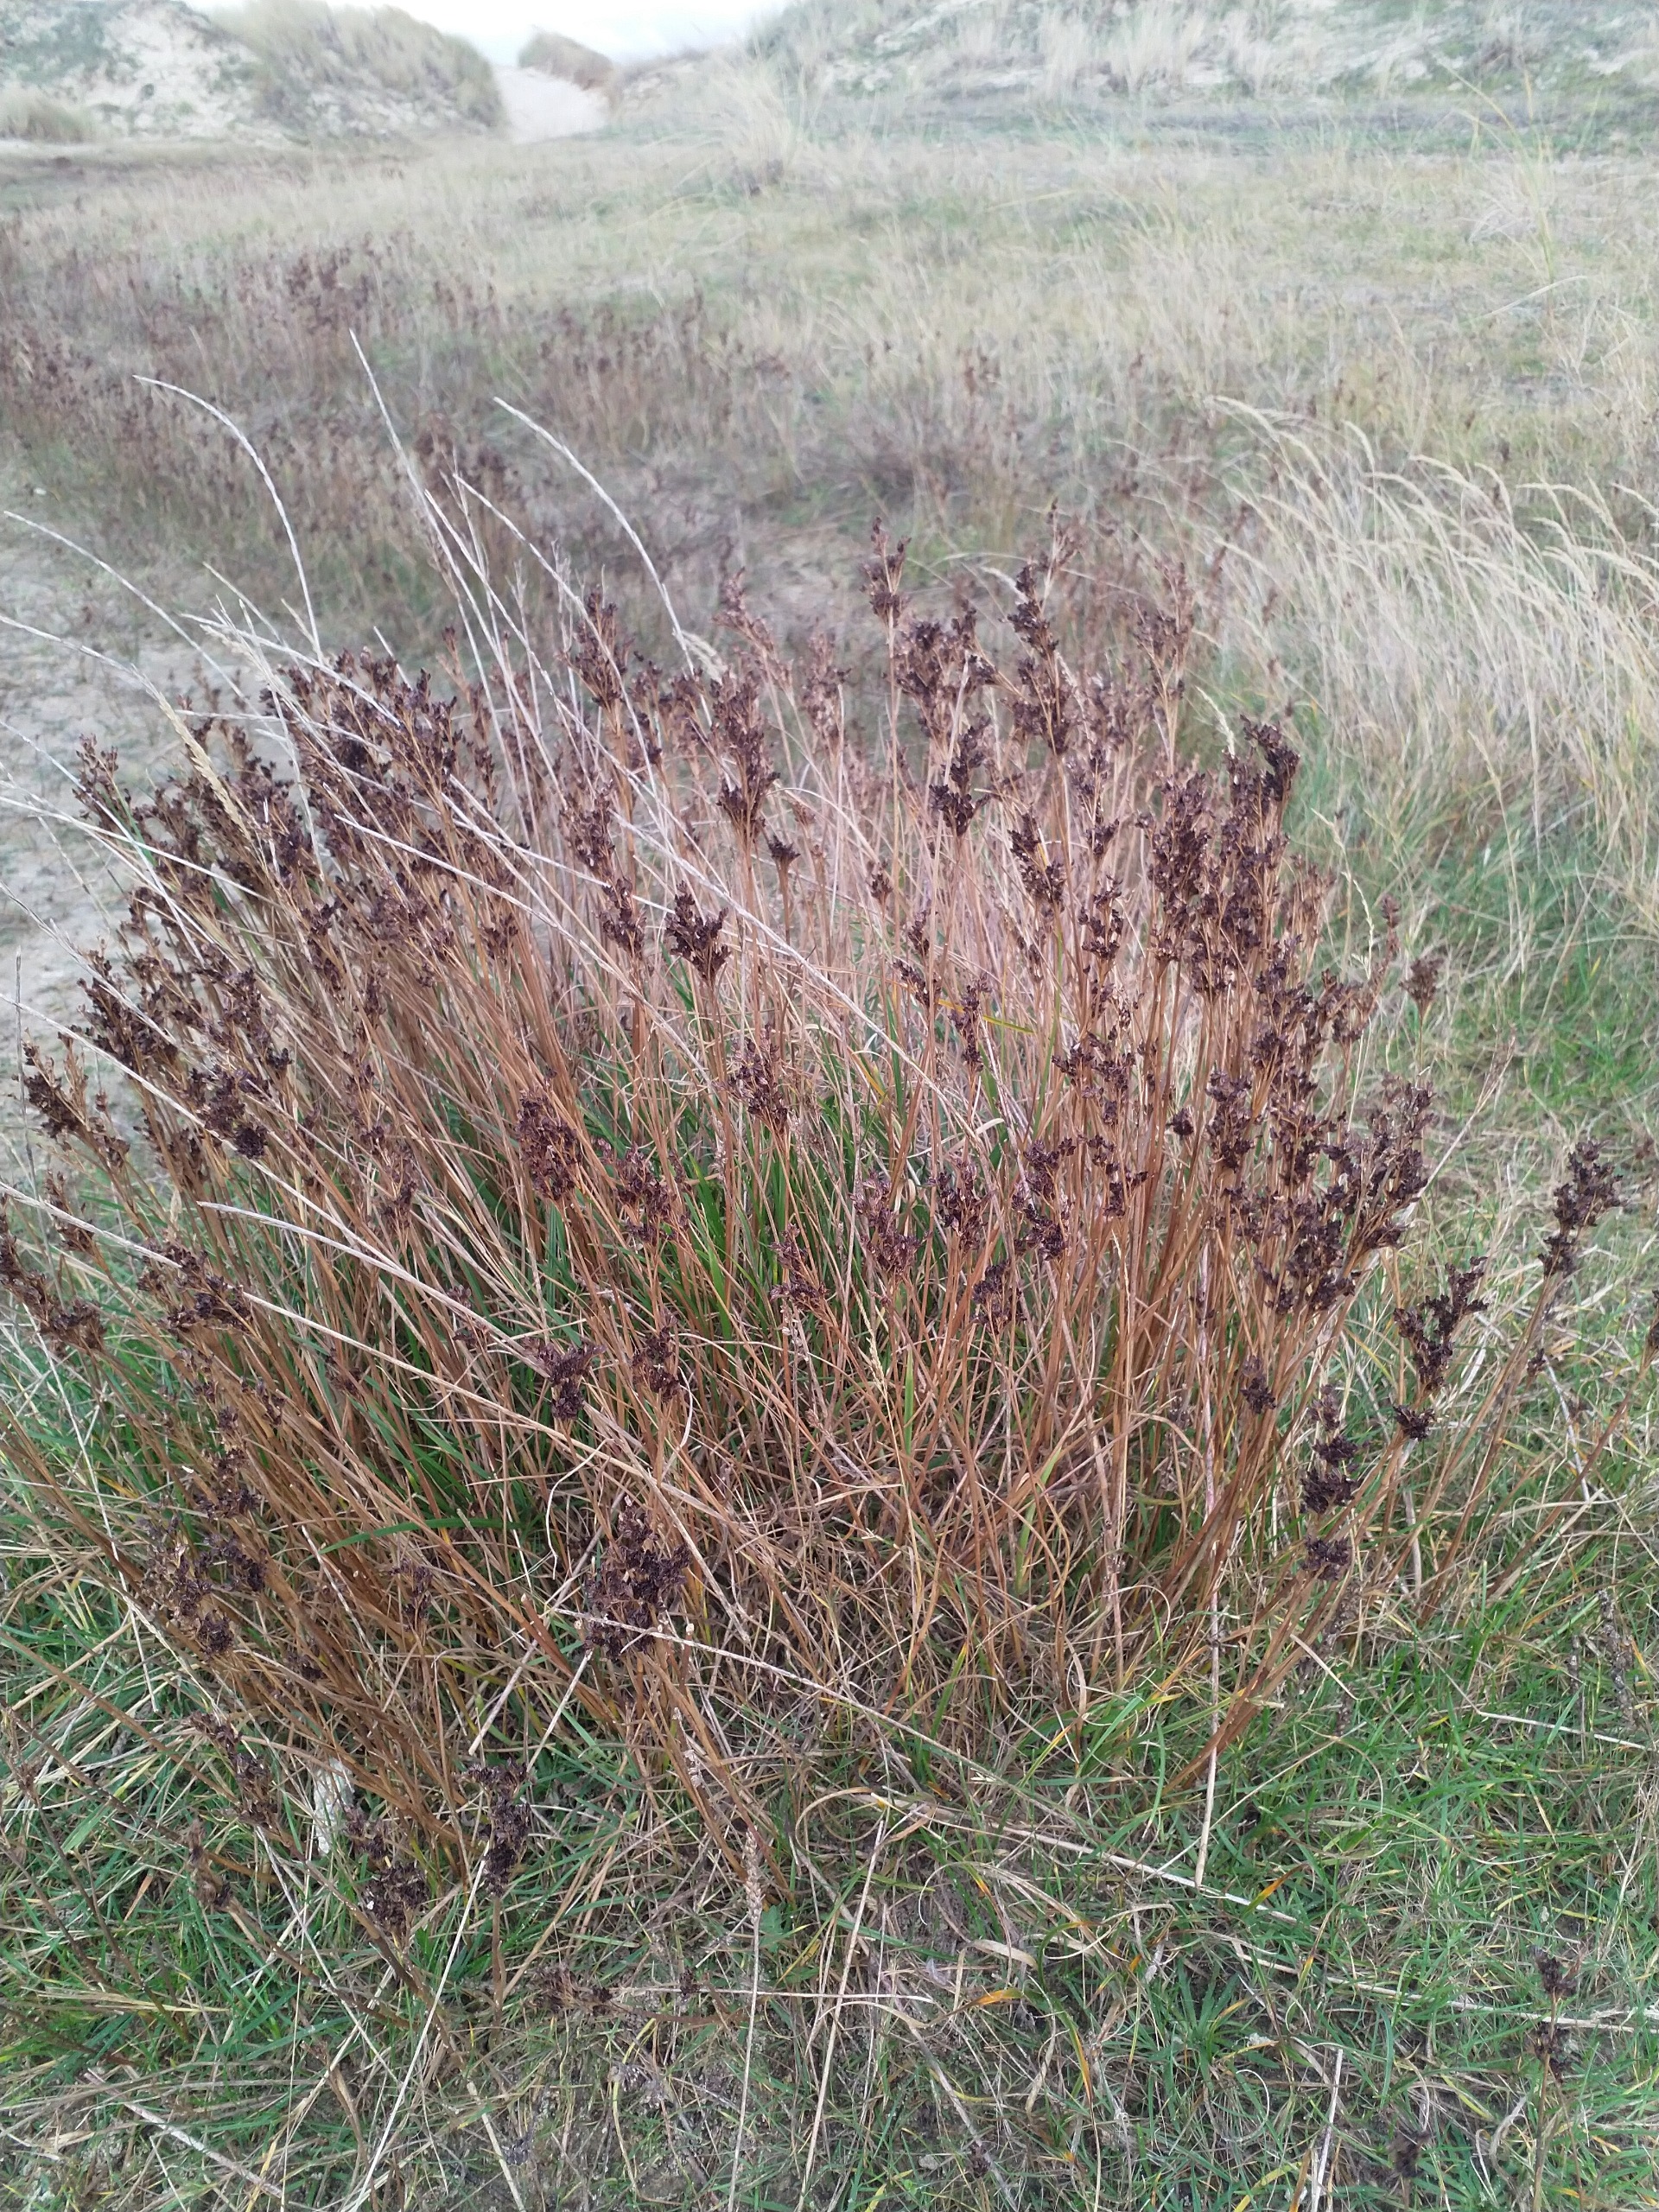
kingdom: Plantae
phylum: Tracheophyta
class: Liliopsida
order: Poales
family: Juncaceae
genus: Juncus
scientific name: Juncus anceps
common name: Sand-siv
